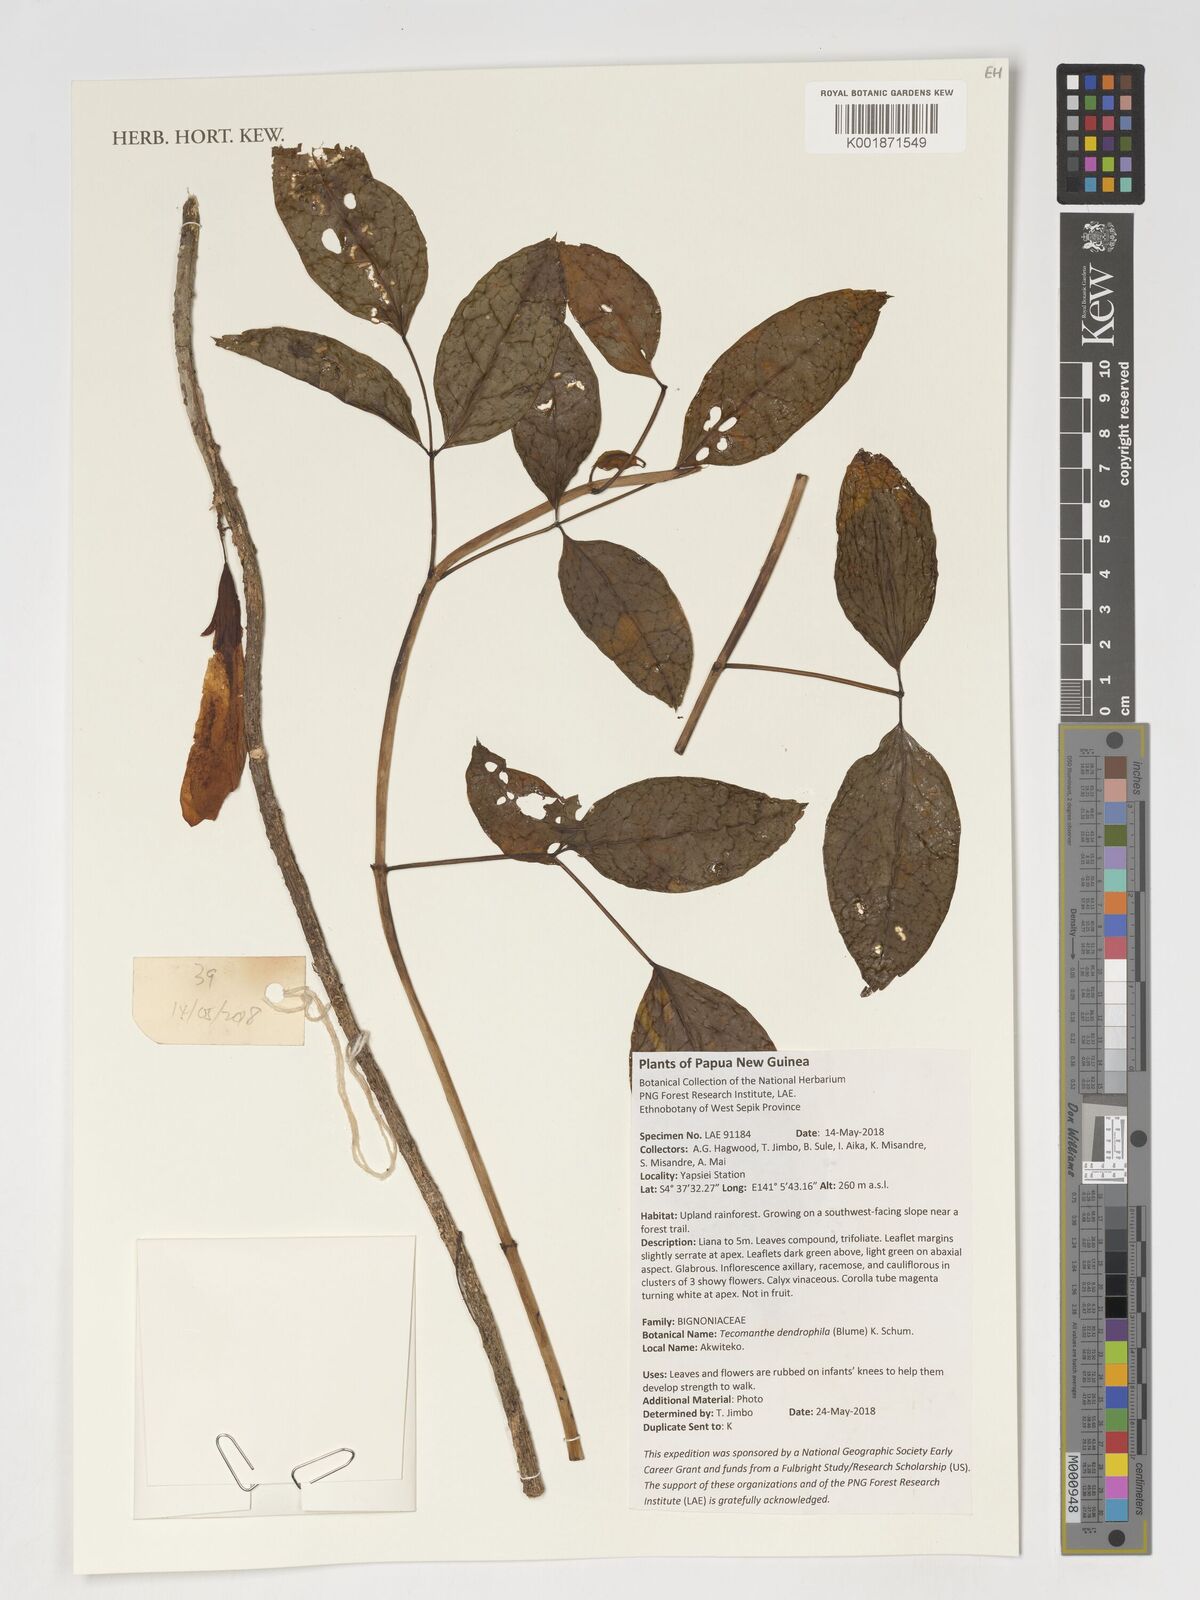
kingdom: Plantae
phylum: Tracheophyta
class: Magnoliopsida
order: Lamiales
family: Bignoniaceae
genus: Tecomanthe
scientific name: Tecomanthe dendrophila
